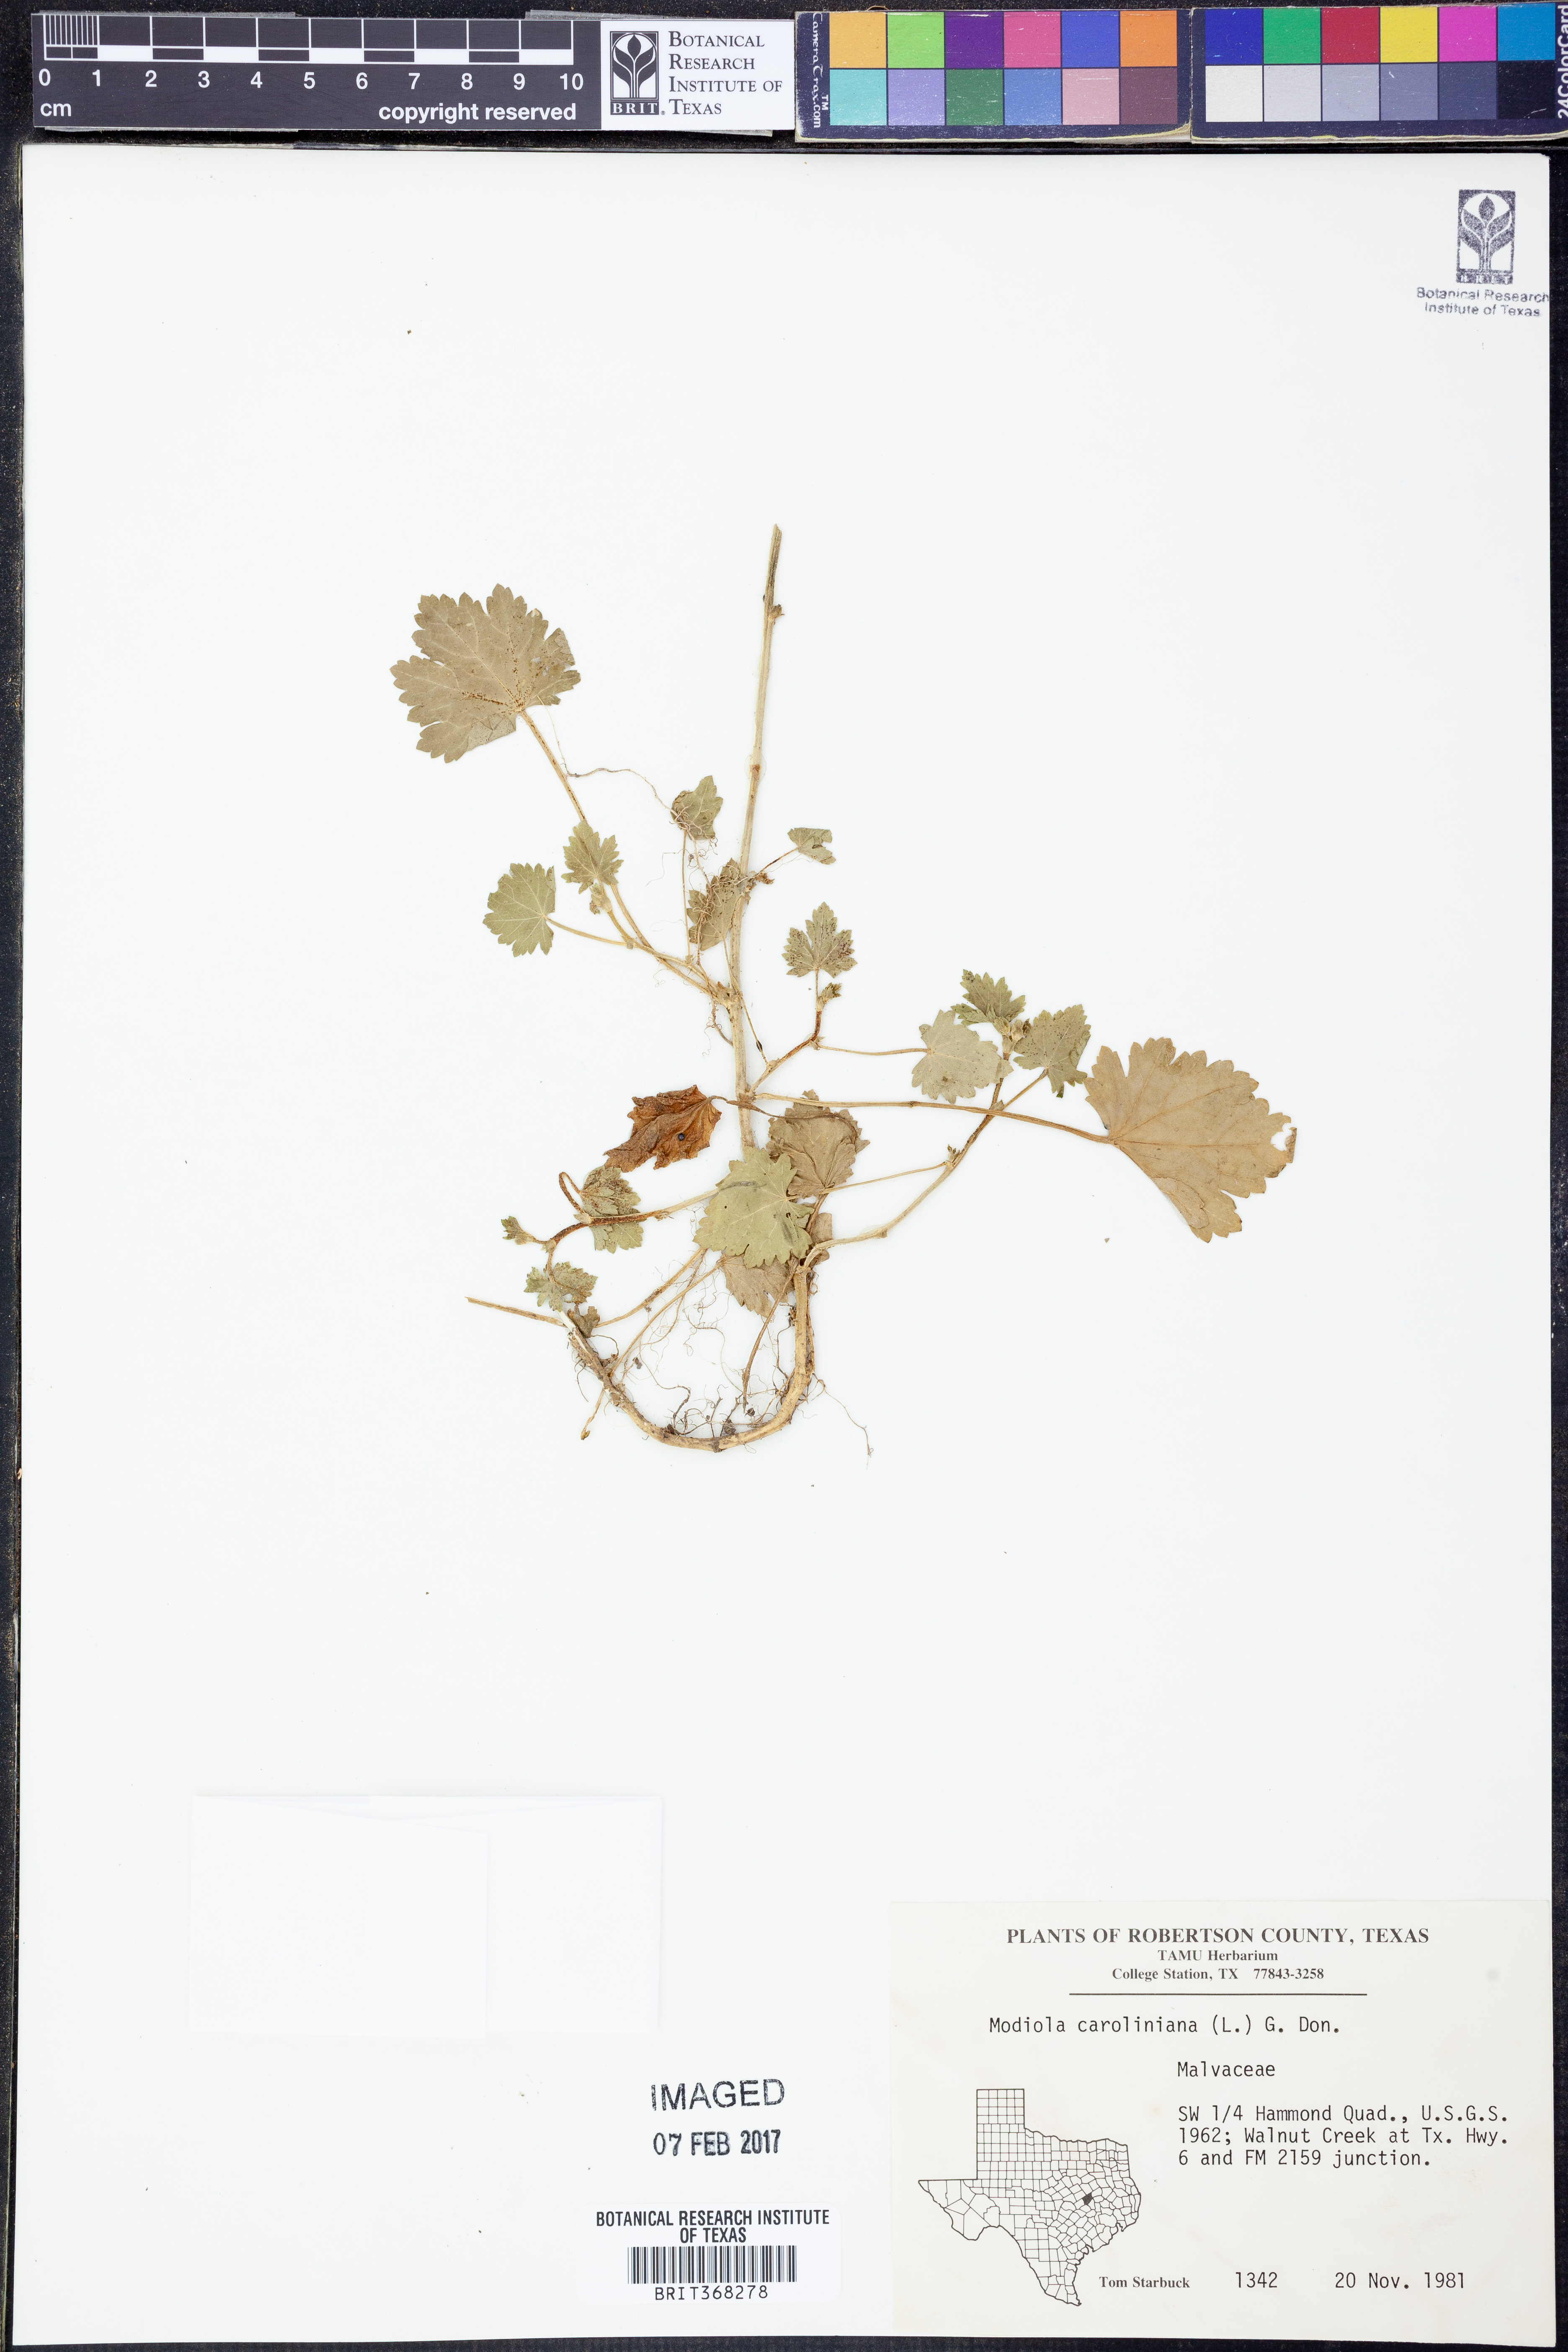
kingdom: Plantae
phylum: Tracheophyta
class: Magnoliopsida
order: Malvales
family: Malvaceae
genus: Modiola
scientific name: Modiola caroliniana
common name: Carolina bristlemallow
